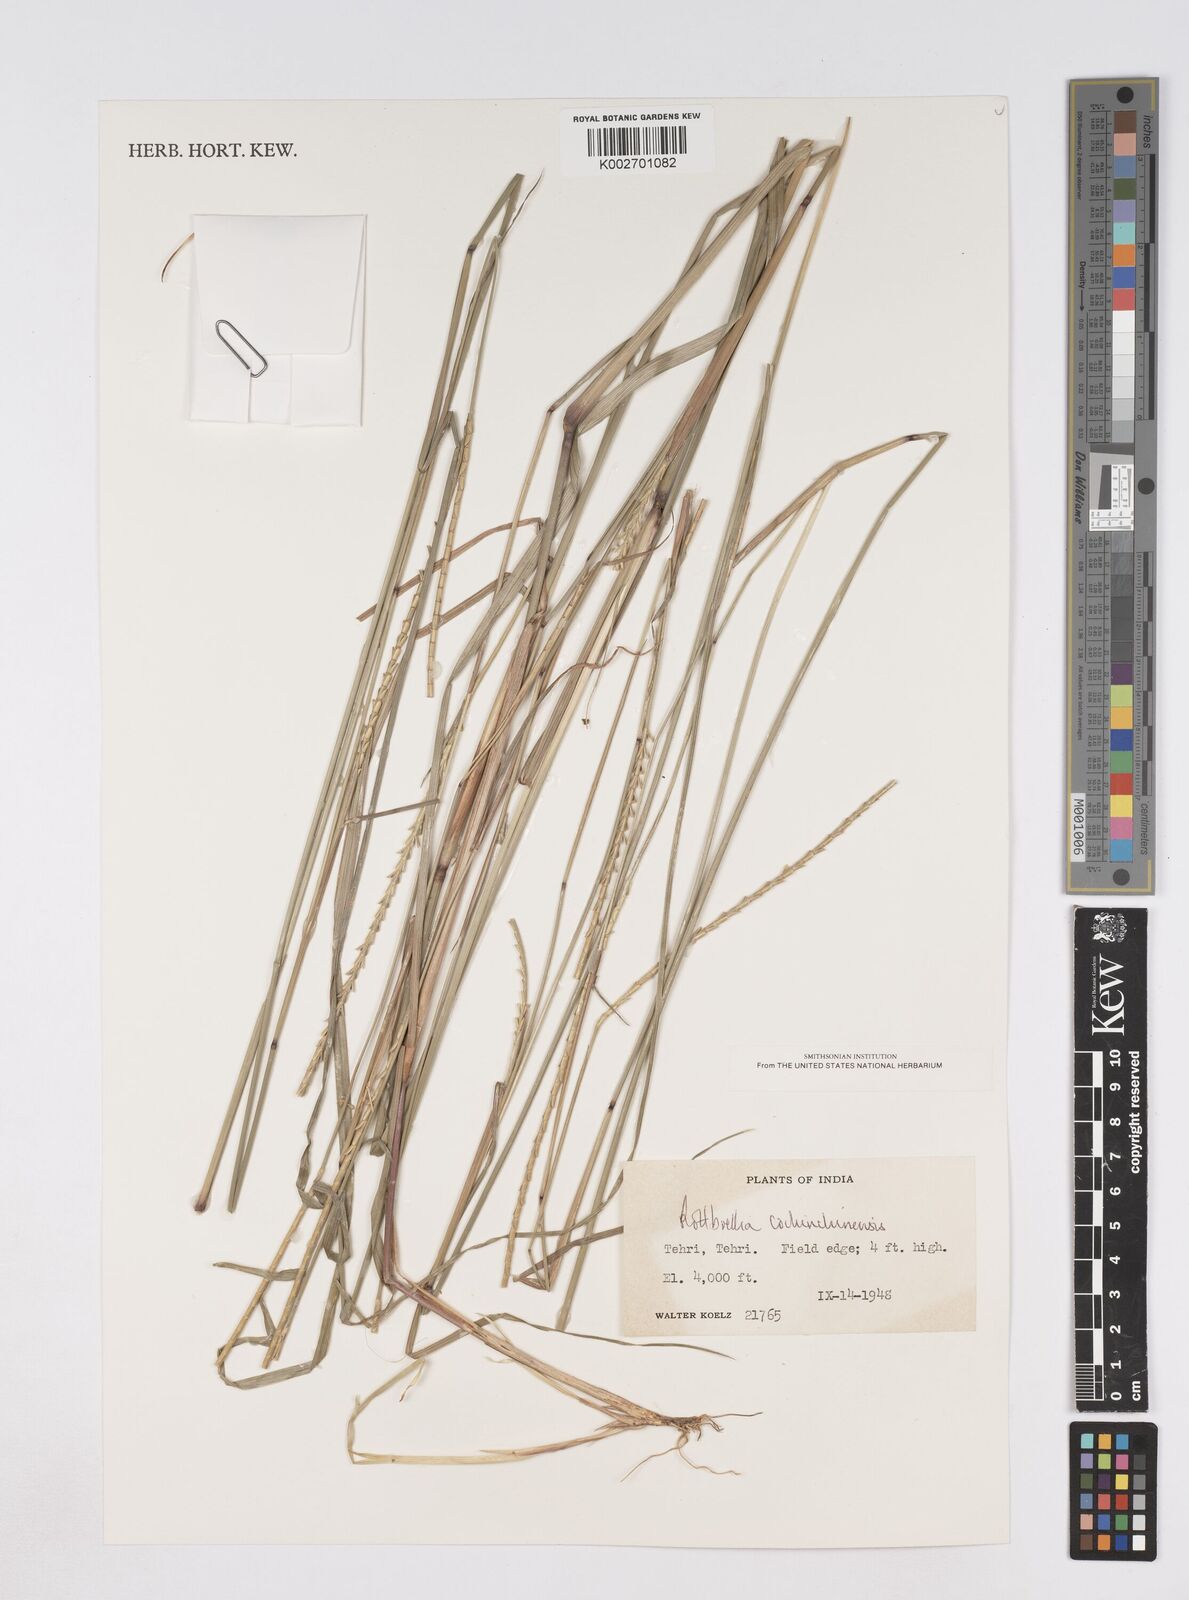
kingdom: Plantae
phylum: Tracheophyta
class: Liliopsida
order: Poales
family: Poaceae
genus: Ophiuros
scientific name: Ophiuros exaltatus
